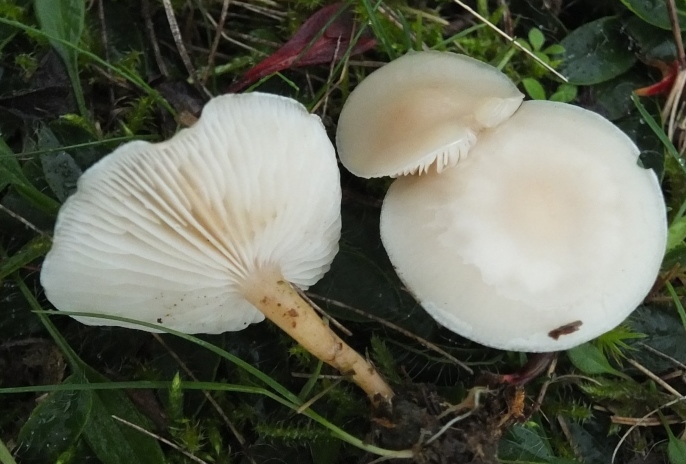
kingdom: Fungi
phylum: Basidiomycota
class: Agaricomycetes
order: Agaricales
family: Tricholomataceae
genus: Clitocybe
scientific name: Clitocybe agrestis
